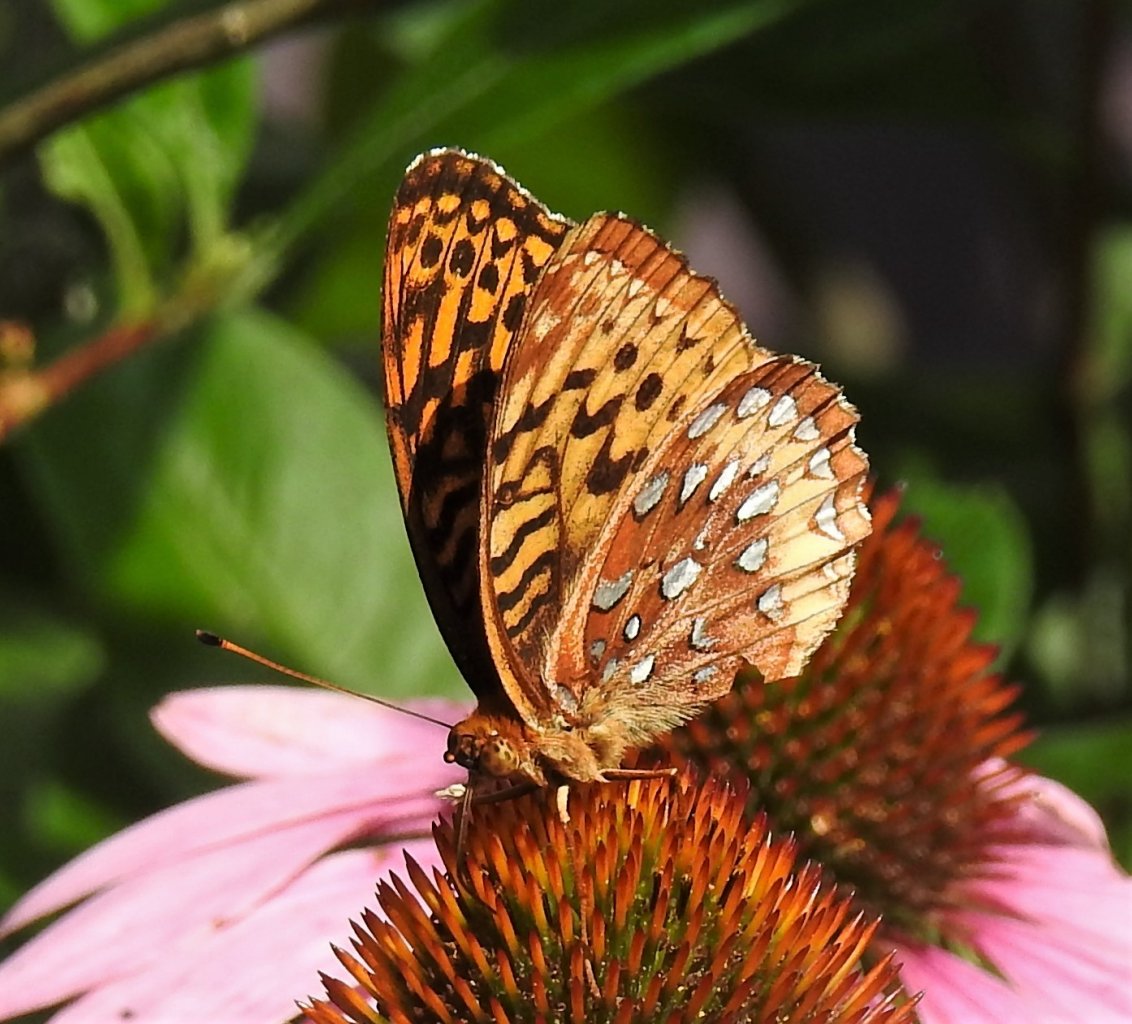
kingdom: Animalia
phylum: Arthropoda
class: Insecta
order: Lepidoptera
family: Nymphalidae
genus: Speyeria
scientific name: Speyeria cybele
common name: Great Spangled Fritillary
